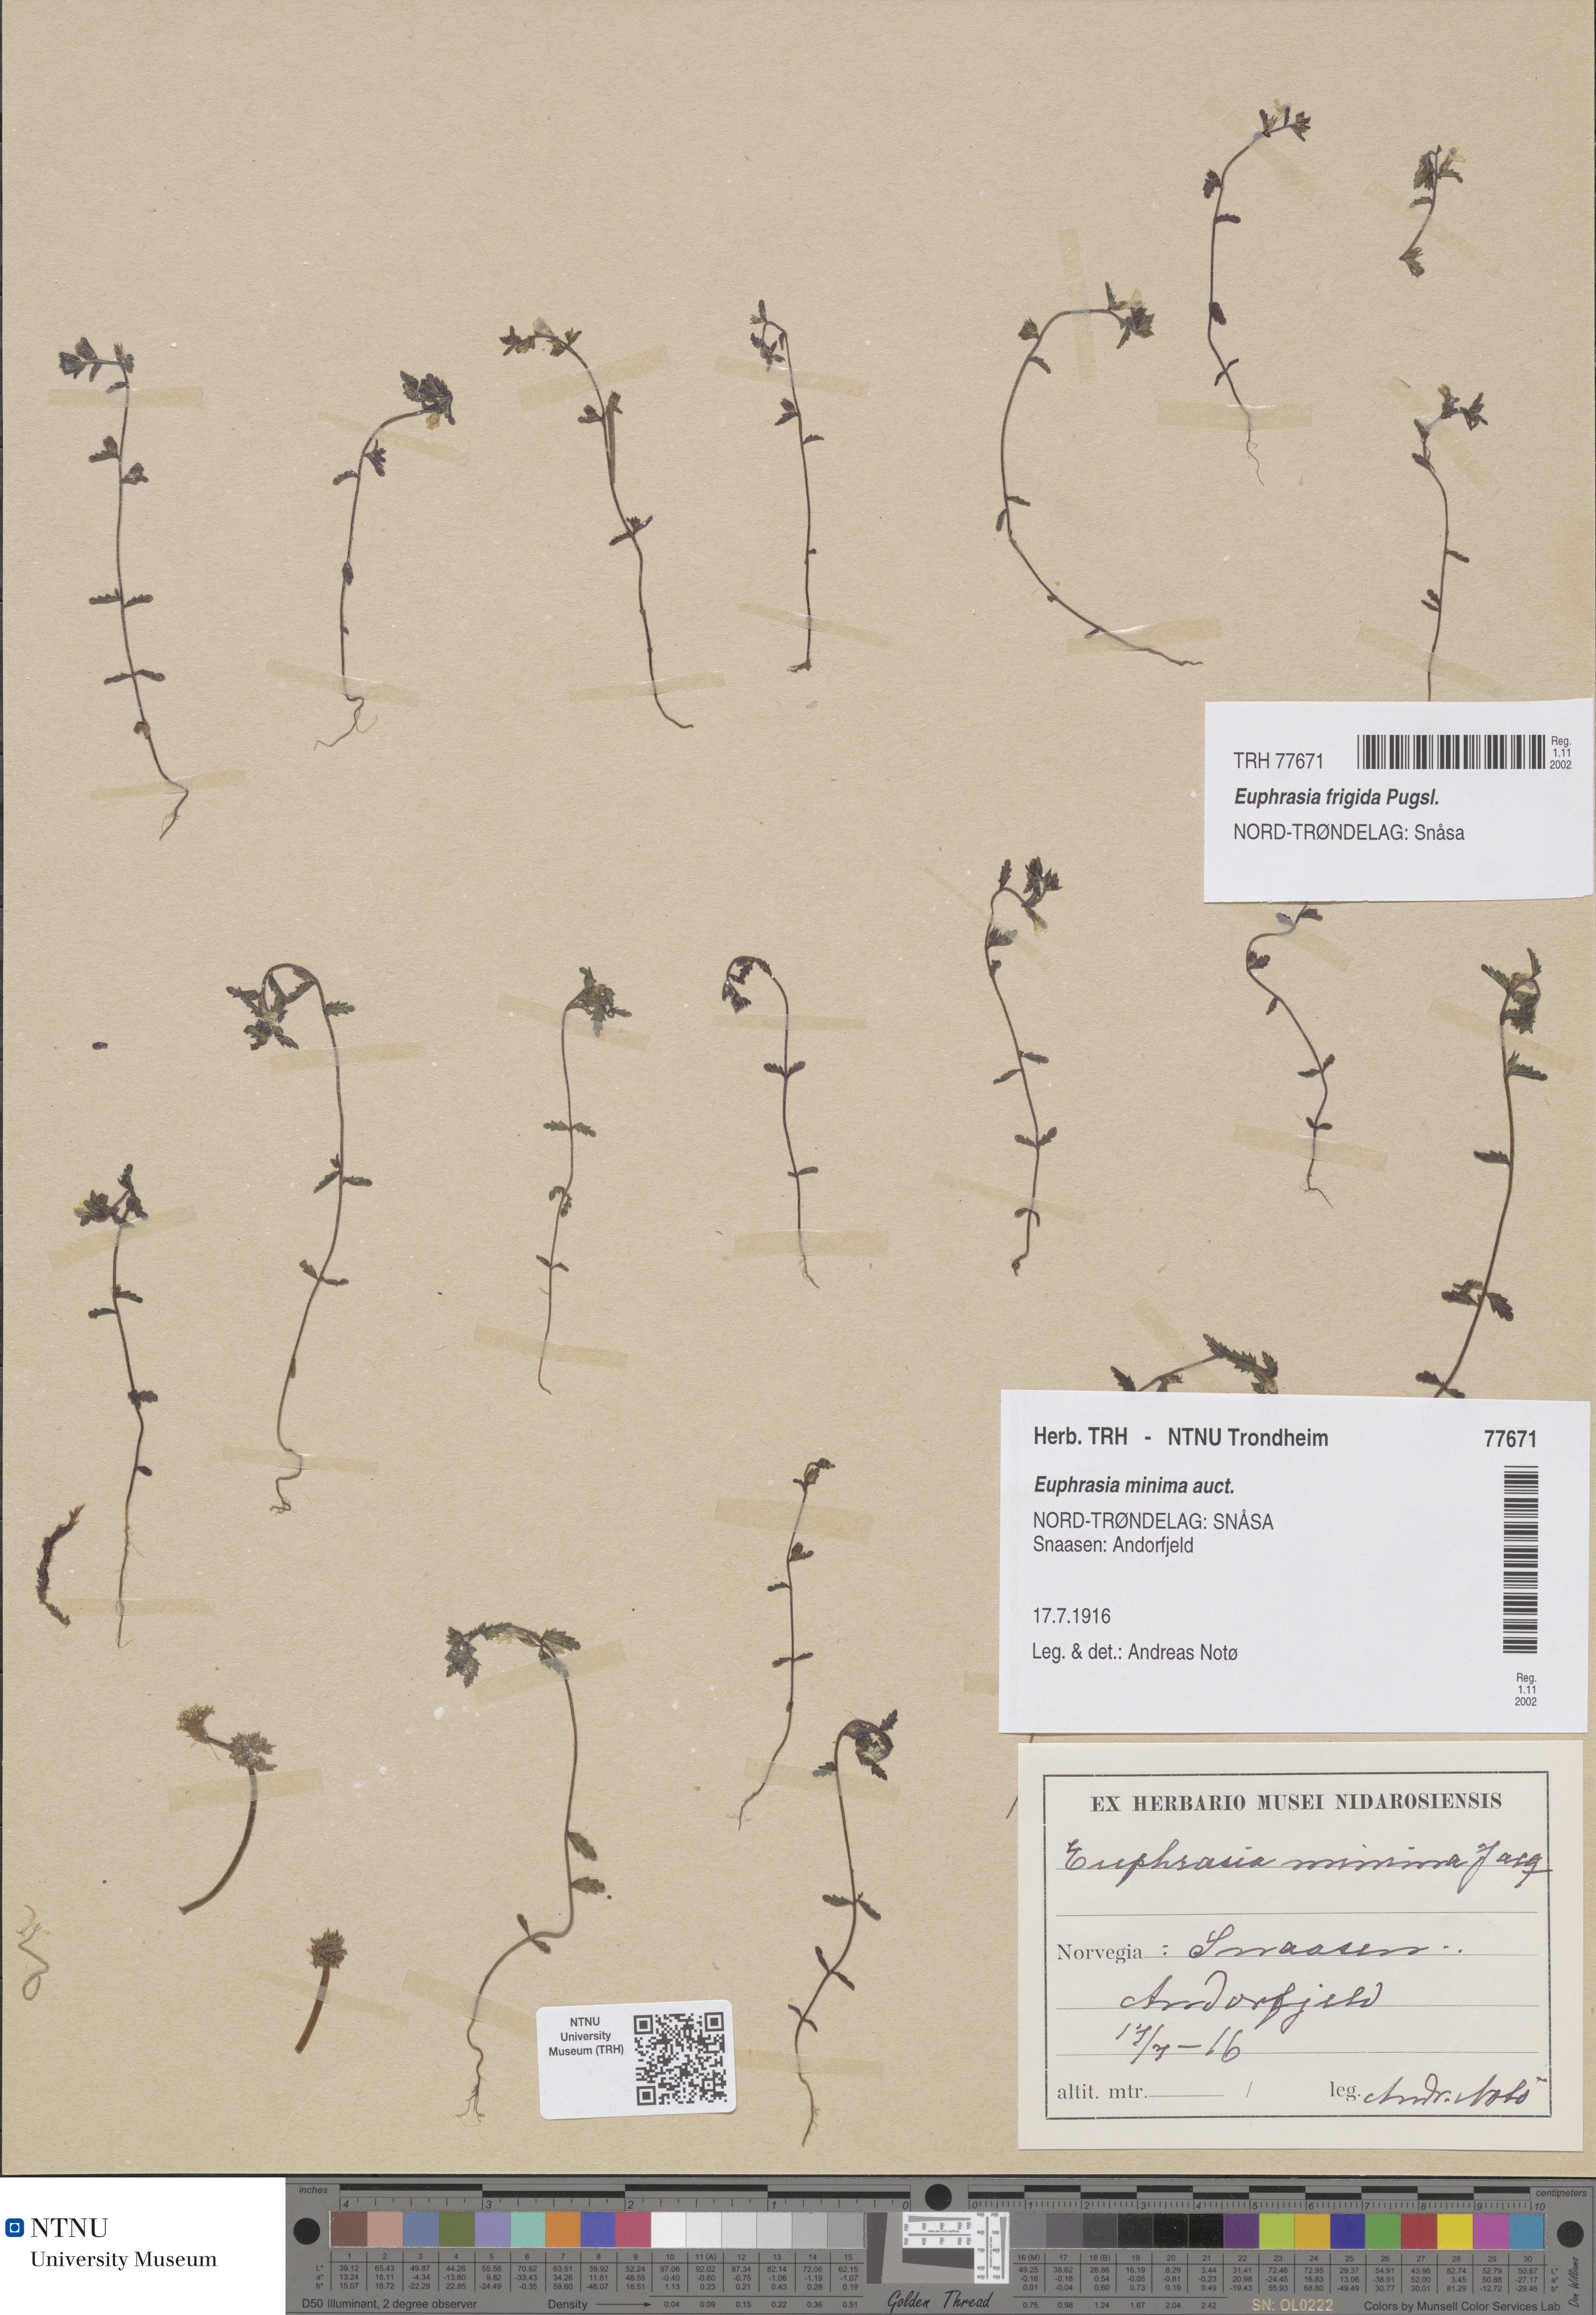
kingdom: Plantae
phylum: Tracheophyta
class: Magnoliopsida
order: Lamiales
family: Orobanchaceae
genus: Euphrasia
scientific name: Euphrasia wettsteinii
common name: Wettstein's eyebright
